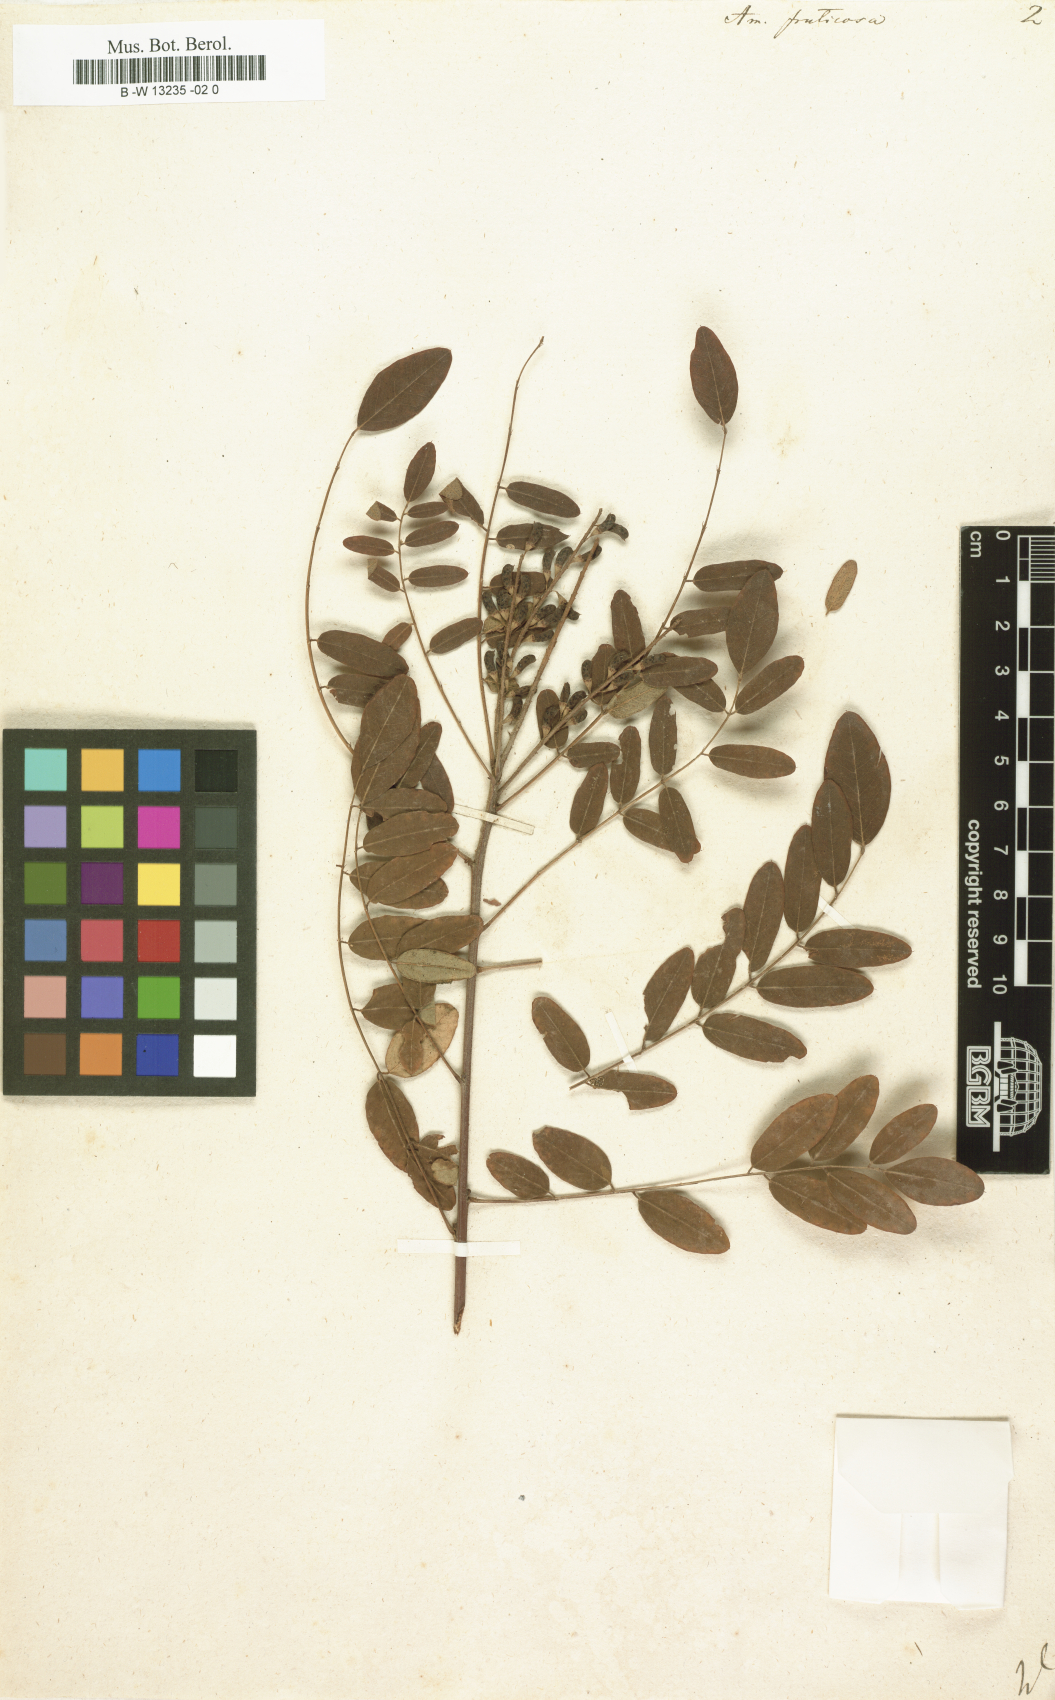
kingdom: Plantae
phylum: Tracheophyta
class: Magnoliopsida
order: Fabales
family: Fabaceae
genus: Amorpha
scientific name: Amorpha fruticosa
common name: False indigo
